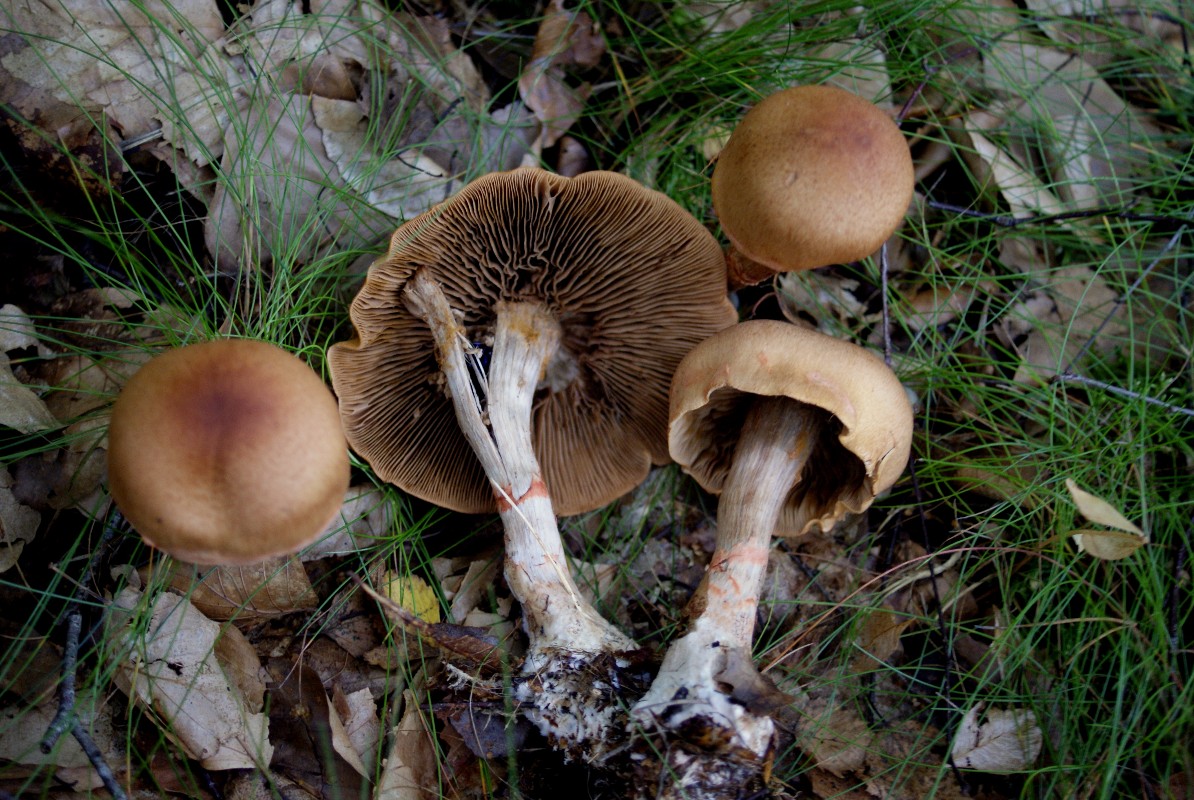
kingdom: Fungi
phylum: Basidiomycota
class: Agaricomycetes
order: Agaricales
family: Cortinariaceae
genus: Cortinarius
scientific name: Cortinarius armillatus
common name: cinnoberbæltet slørhat
